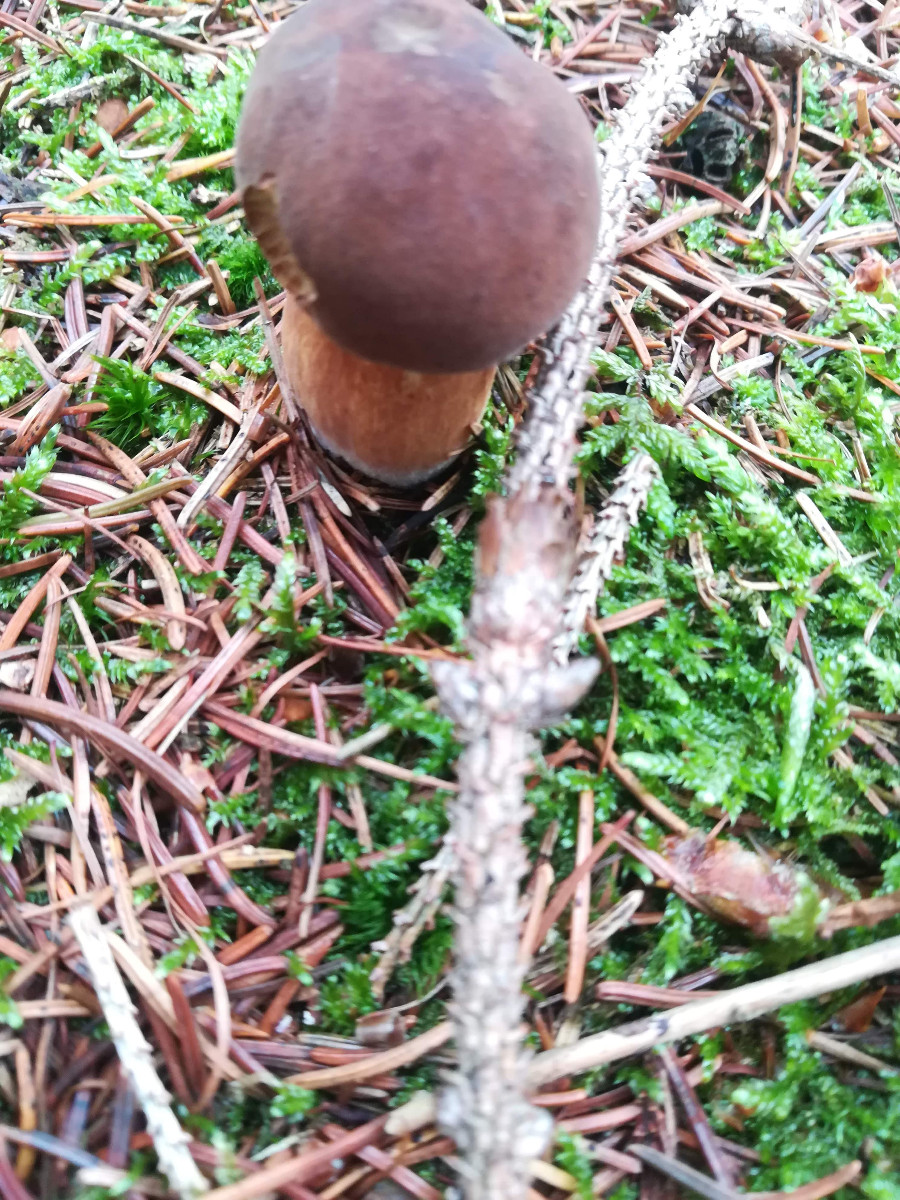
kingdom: Fungi
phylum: Basidiomycota
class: Agaricomycetes
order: Boletales
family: Boletaceae
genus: Imleria
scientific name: Imleria badia
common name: brunstokket rørhat
